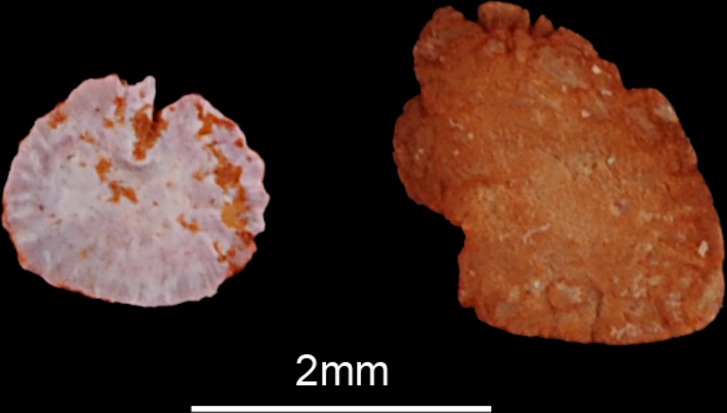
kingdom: Animalia
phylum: Chordata
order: Siluriformes
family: Claroteidae
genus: Auchenoglanis
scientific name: Auchenoglanis occidentalis
